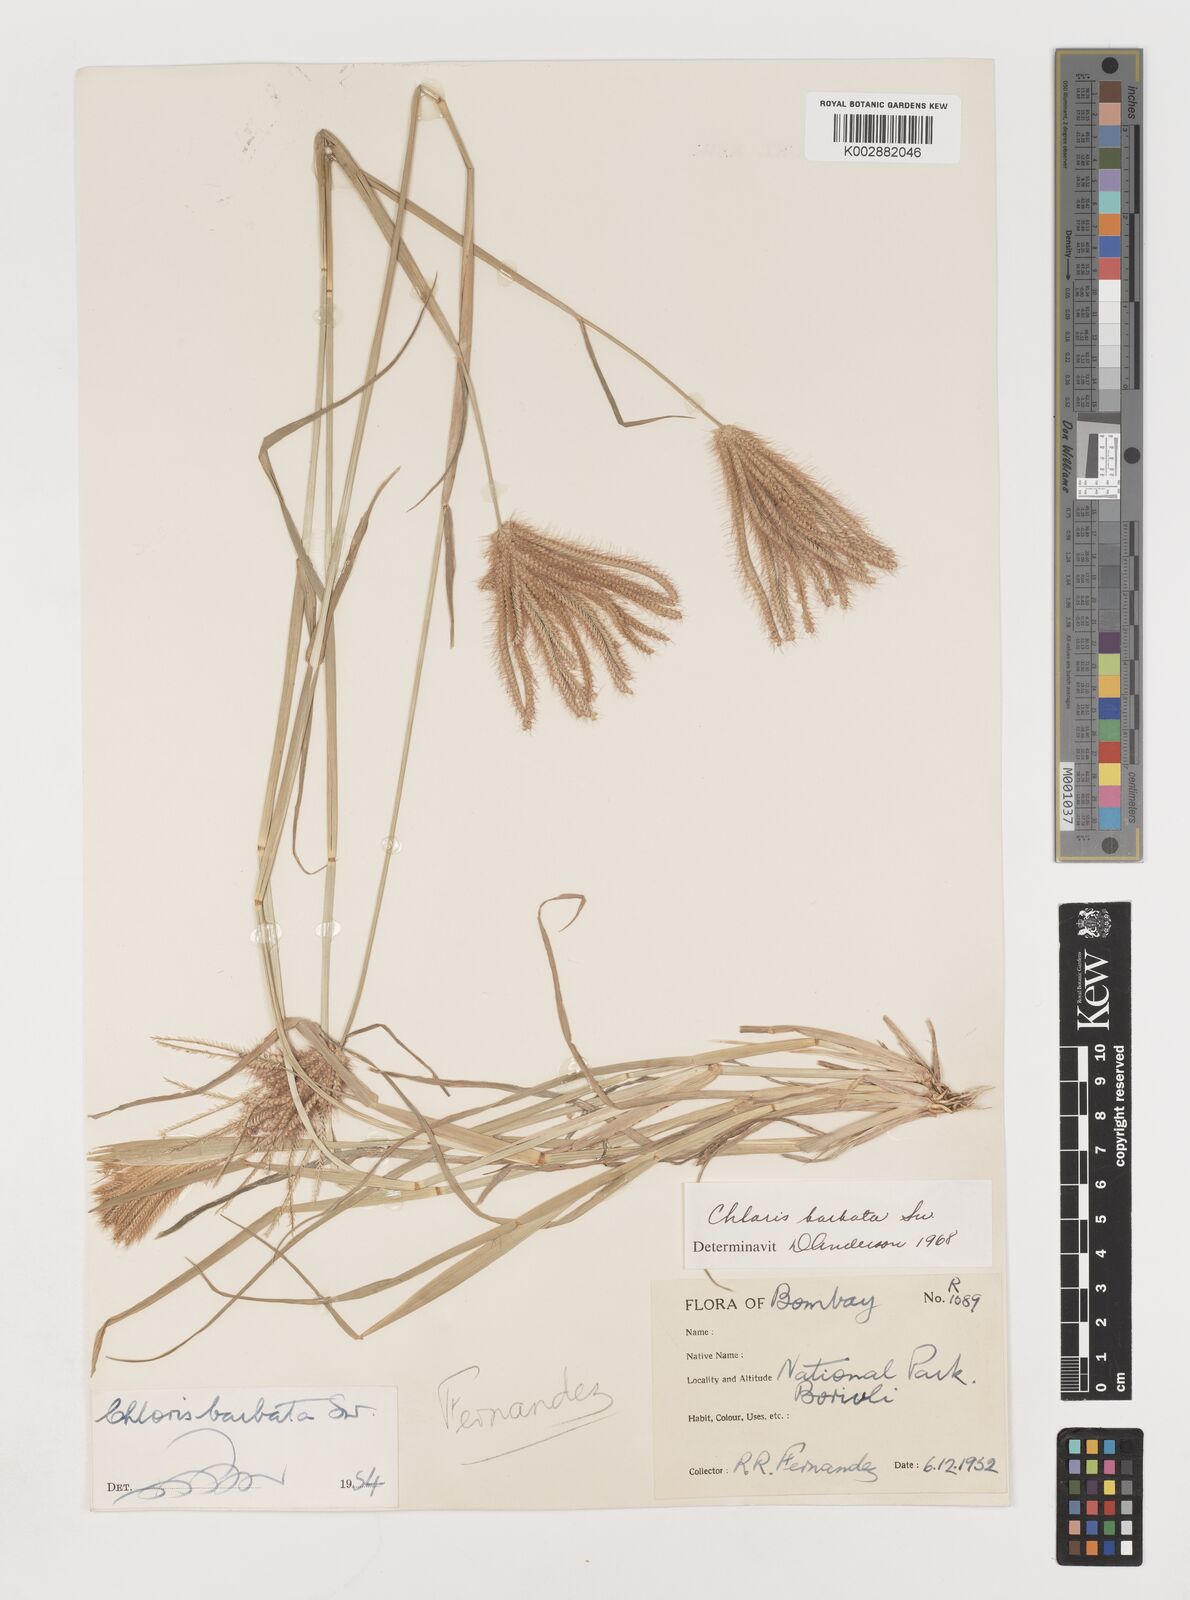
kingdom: Plantae
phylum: Tracheophyta
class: Liliopsida
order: Poales
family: Poaceae
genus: Chloris
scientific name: Chloris barbata
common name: Swollen fingergrass
